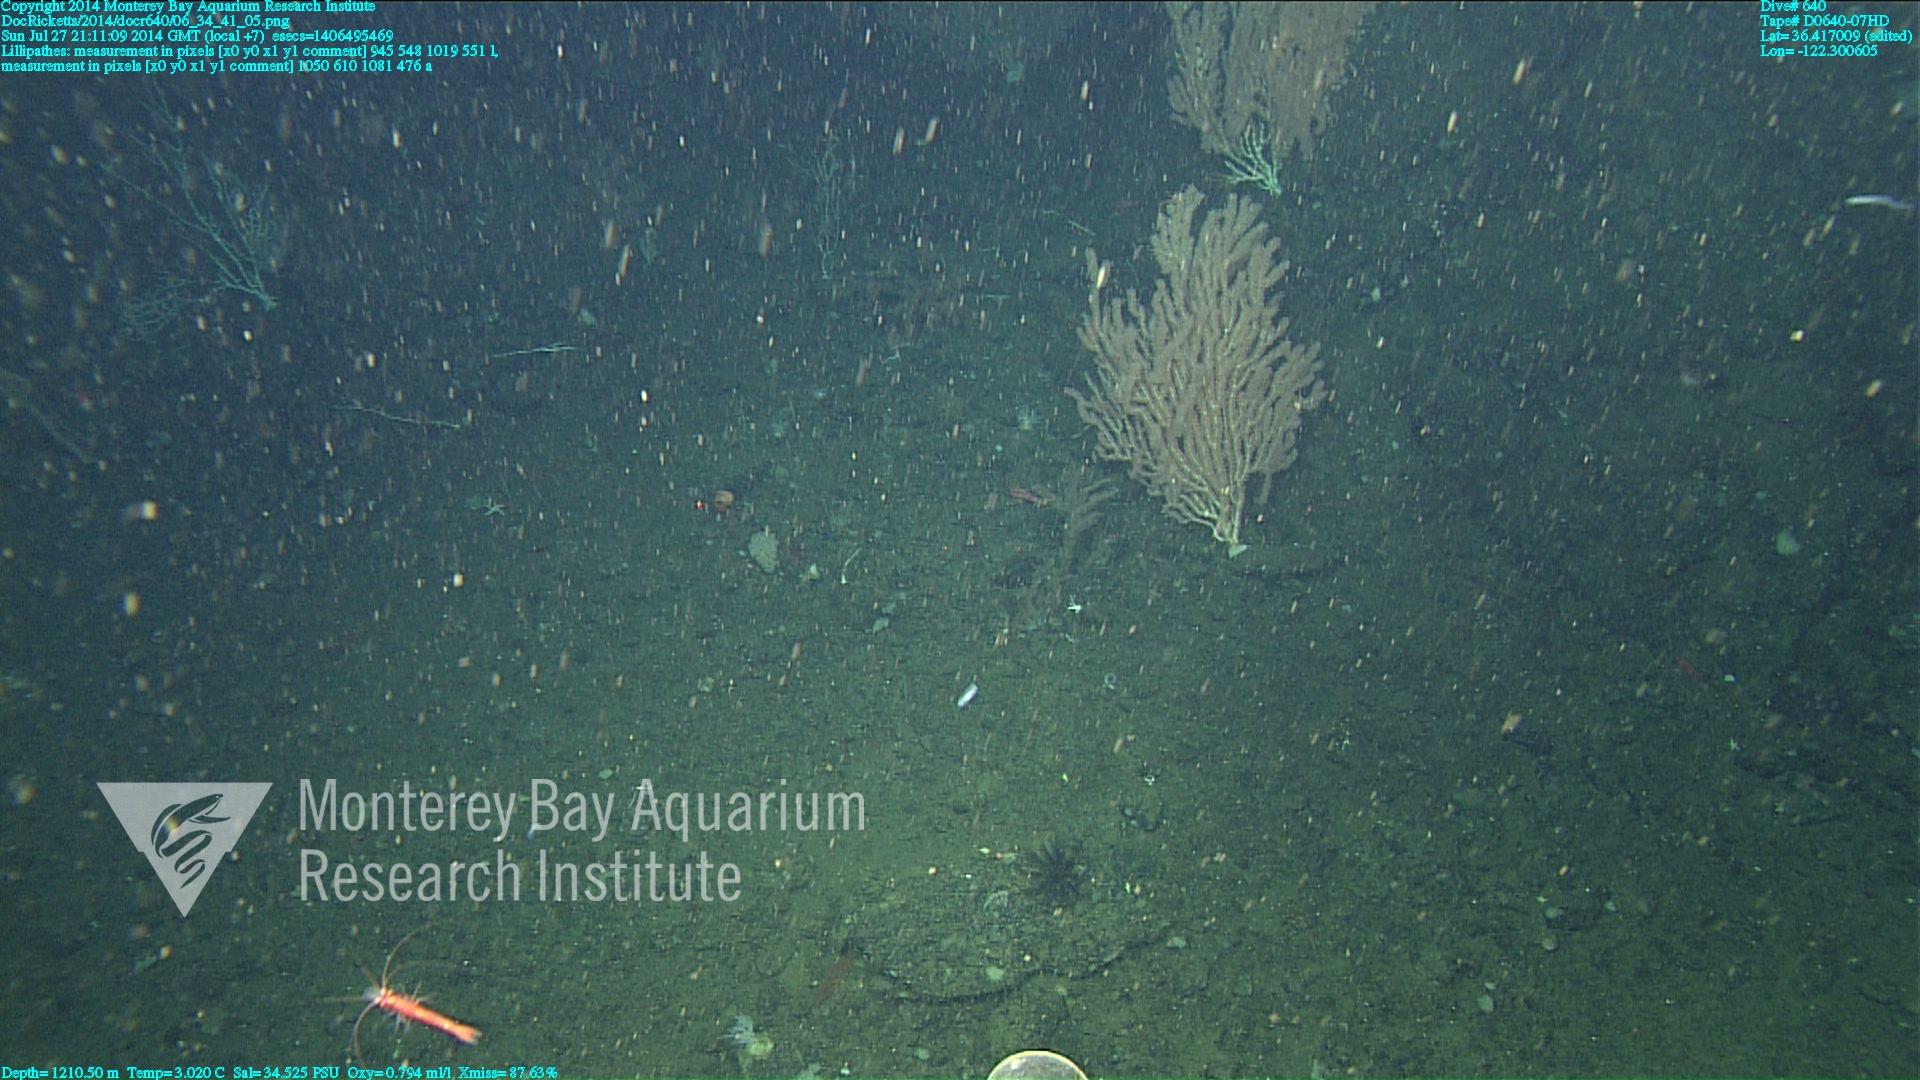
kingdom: Animalia
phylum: Cnidaria
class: Anthozoa
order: Antipatharia
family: Schizopathidae
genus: Lillipathes
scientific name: Lillipathes
